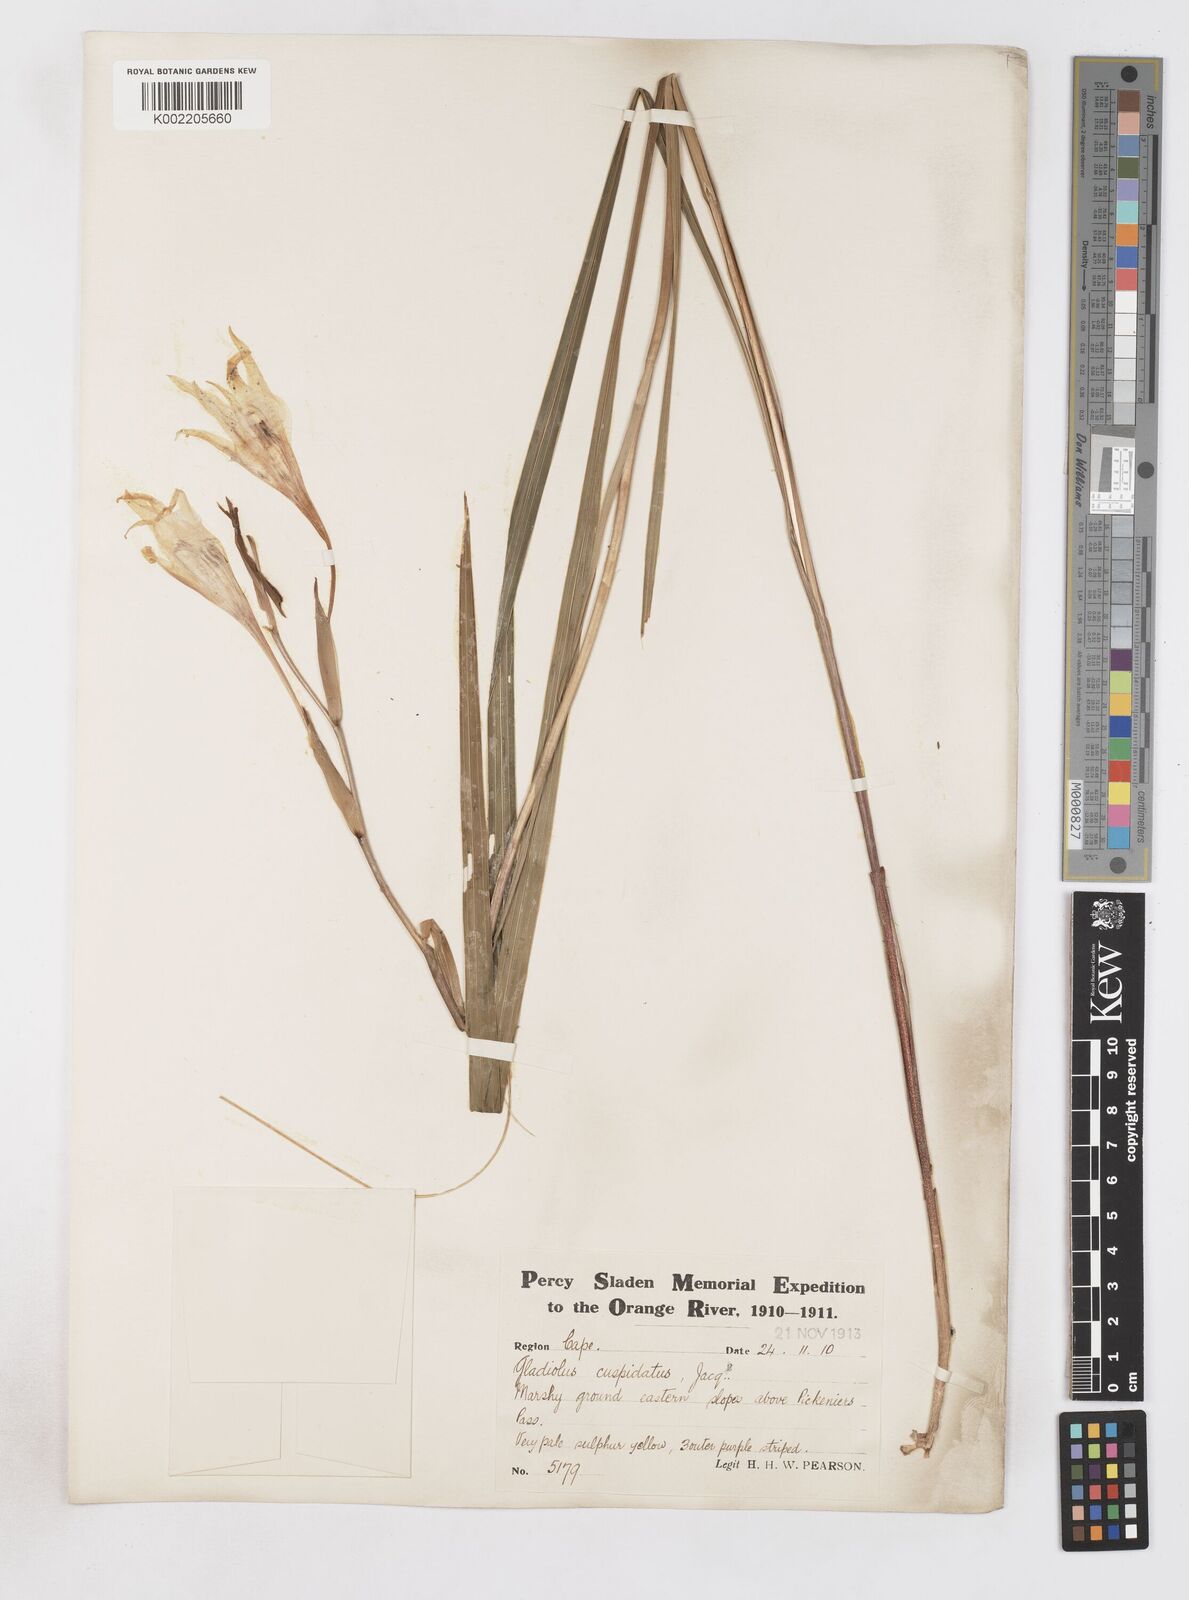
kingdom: Plantae
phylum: Tracheophyta
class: Liliopsida
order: Asparagales
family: Iridaceae
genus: Gladiolus
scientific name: Gladiolus undulatus
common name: Large painted-lady
